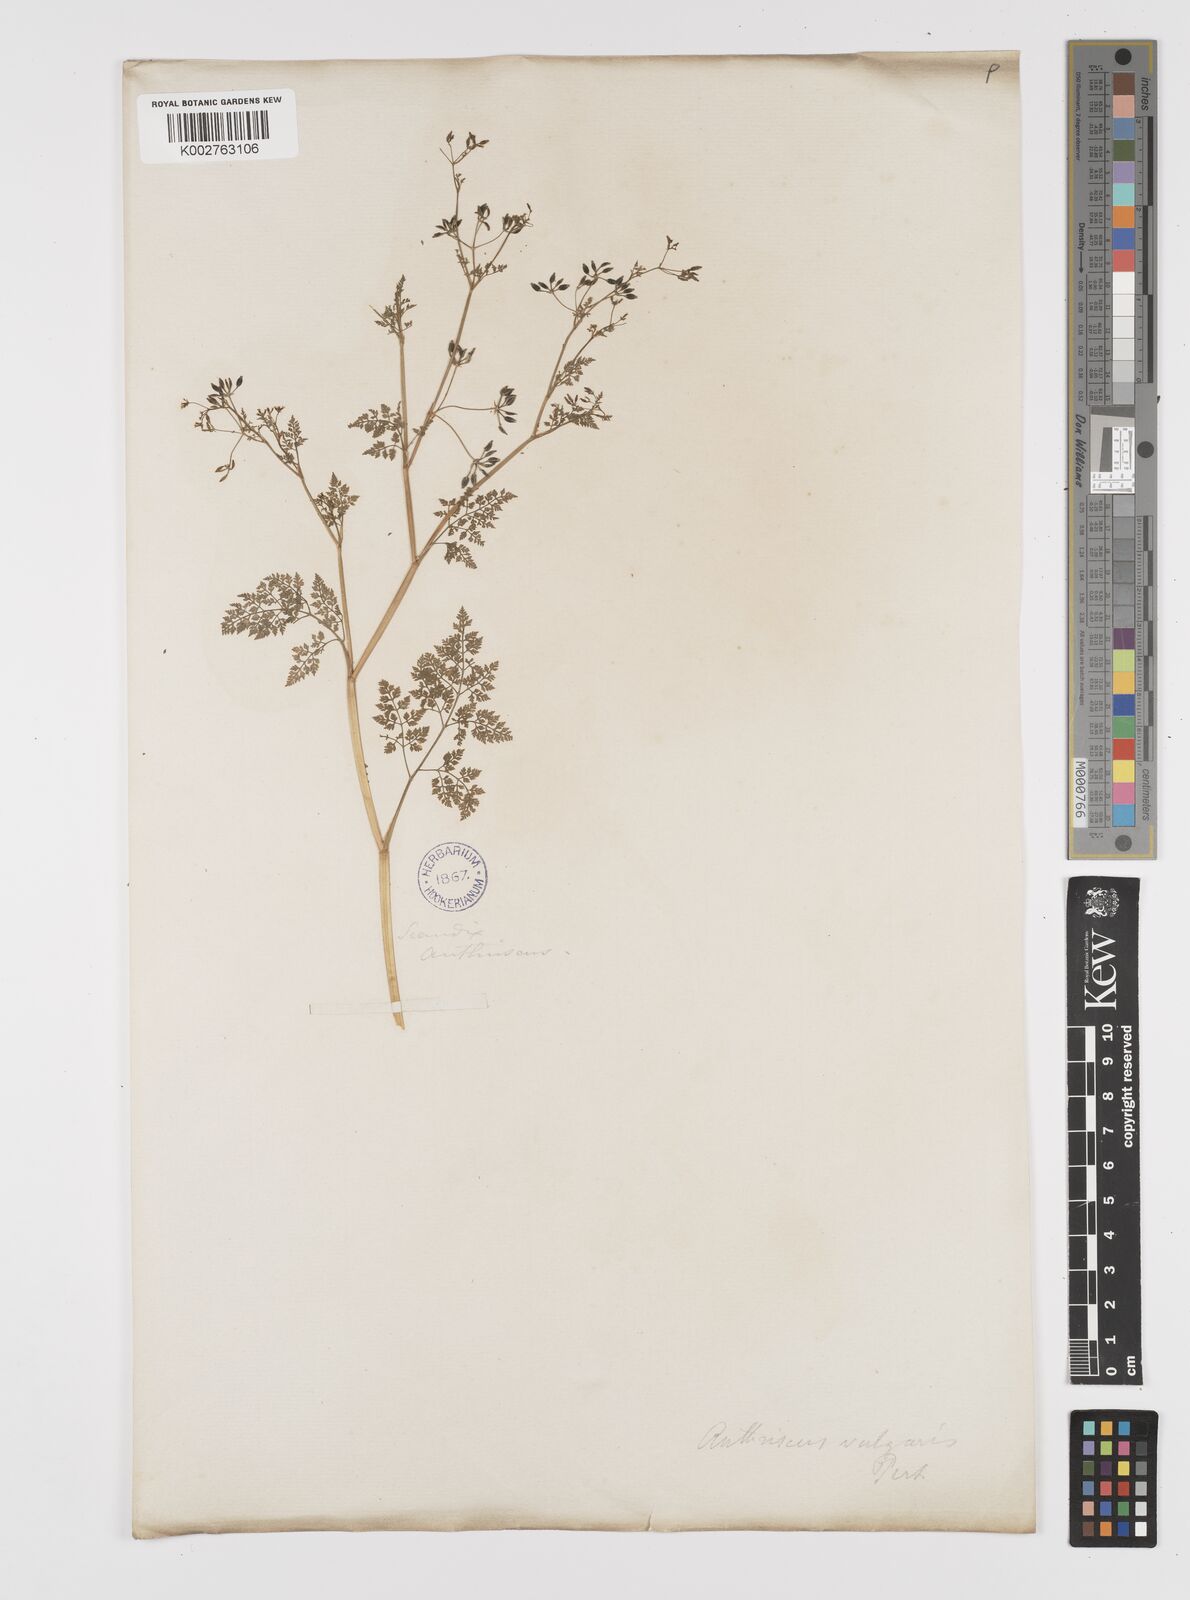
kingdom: Plantae
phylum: Tracheophyta
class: Magnoliopsida
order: Apiales
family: Apiaceae
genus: Anthriscus
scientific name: Anthriscus caucalis
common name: Bur chervil
